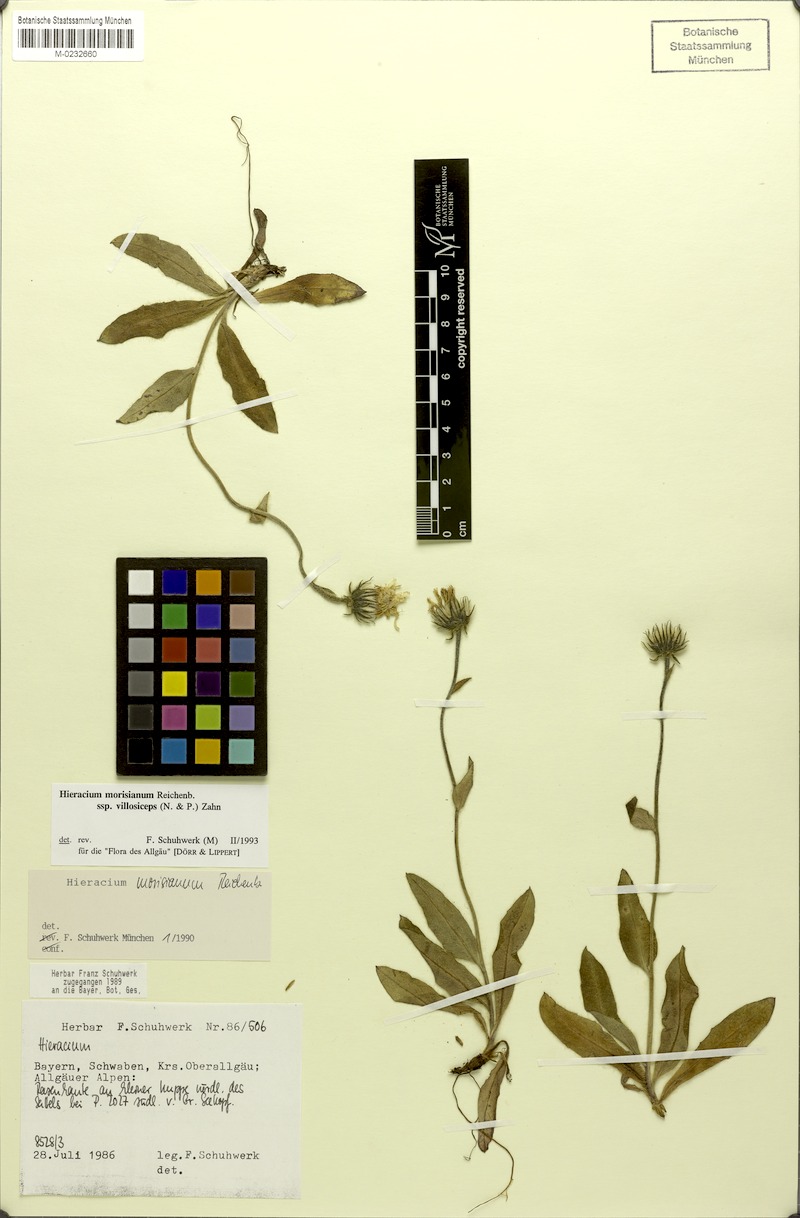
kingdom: Plantae
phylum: Tracheophyta
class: Magnoliopsida
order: Asterales
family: Asteraceae
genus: Hieracium
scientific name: Hieracium pilosum
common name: Fimbriate-pitted hawkweed
